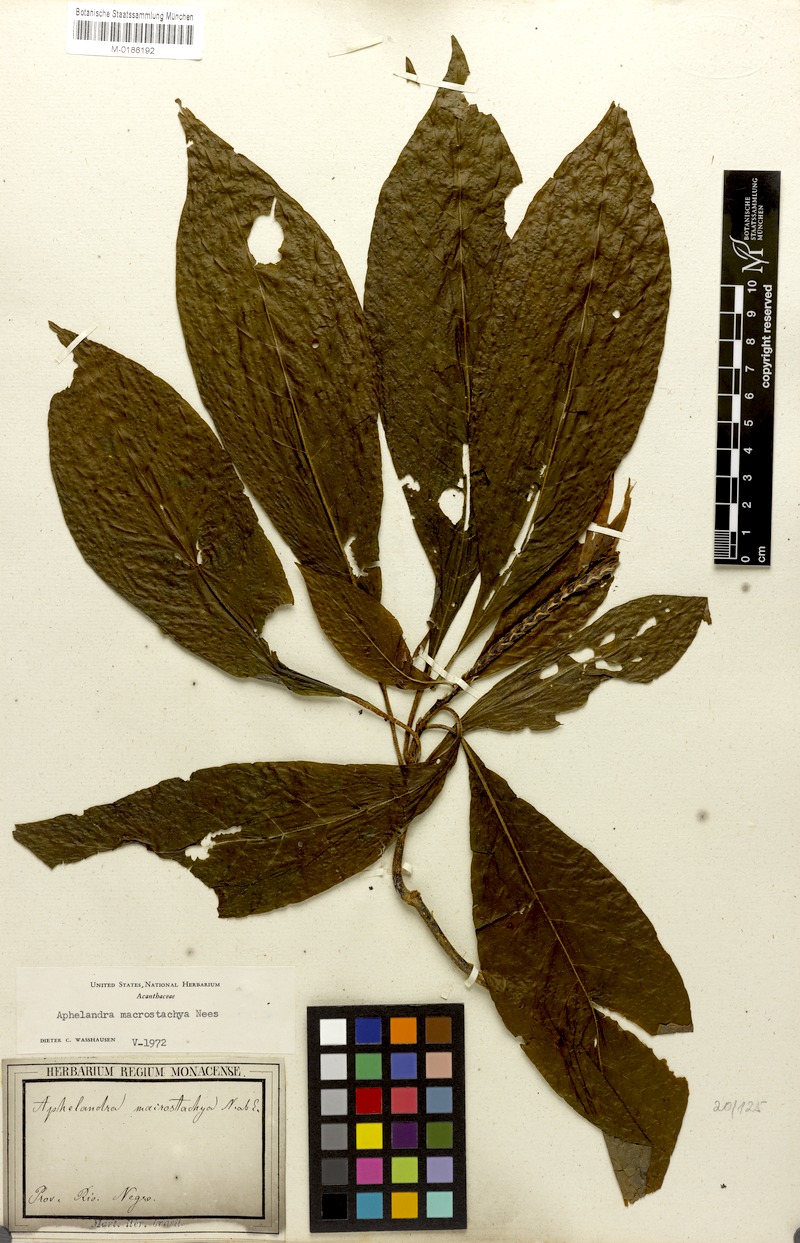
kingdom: Plantae
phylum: Tracheophyta
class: Magnoliopsida
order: Lamiales
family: Acanthaceae
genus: Aphelandra
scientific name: Aphelandra macrostachya
